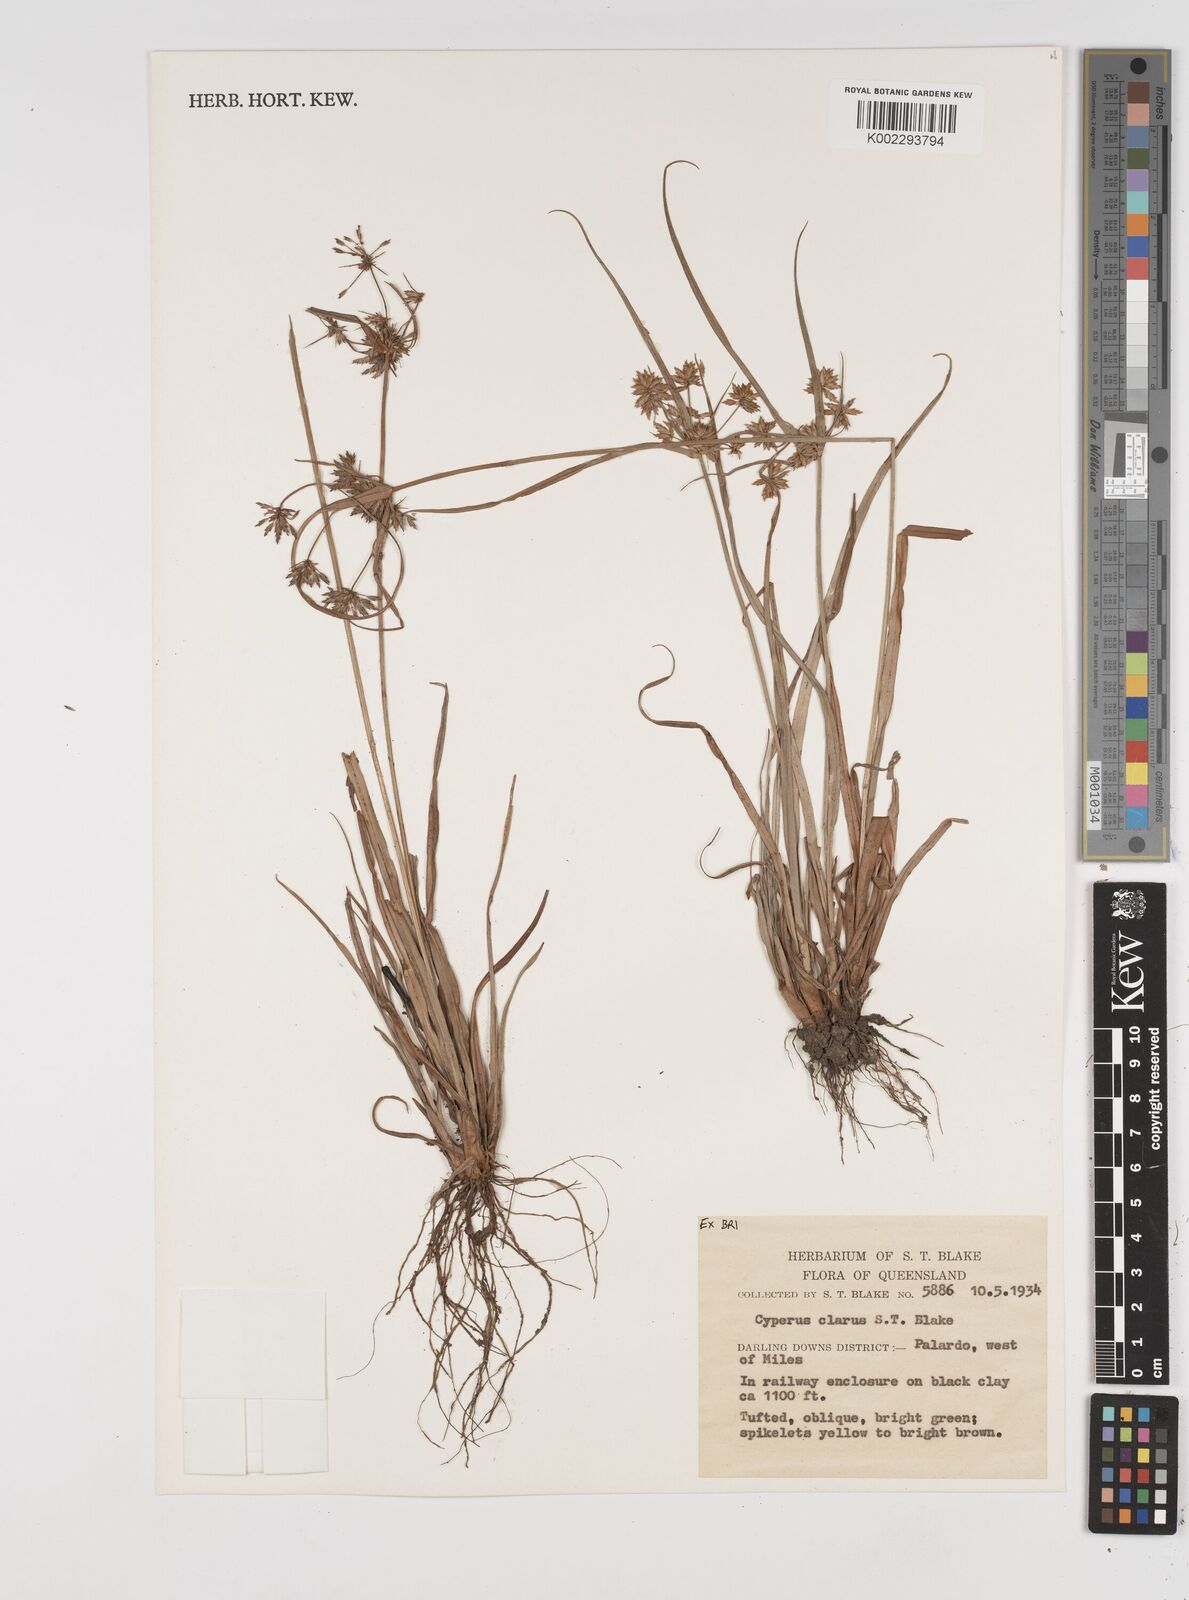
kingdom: Plantae
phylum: Tracheophyta
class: Liliopsida
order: Poales
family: Cyperaceae
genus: Cyperus
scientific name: Cyperus clarus
